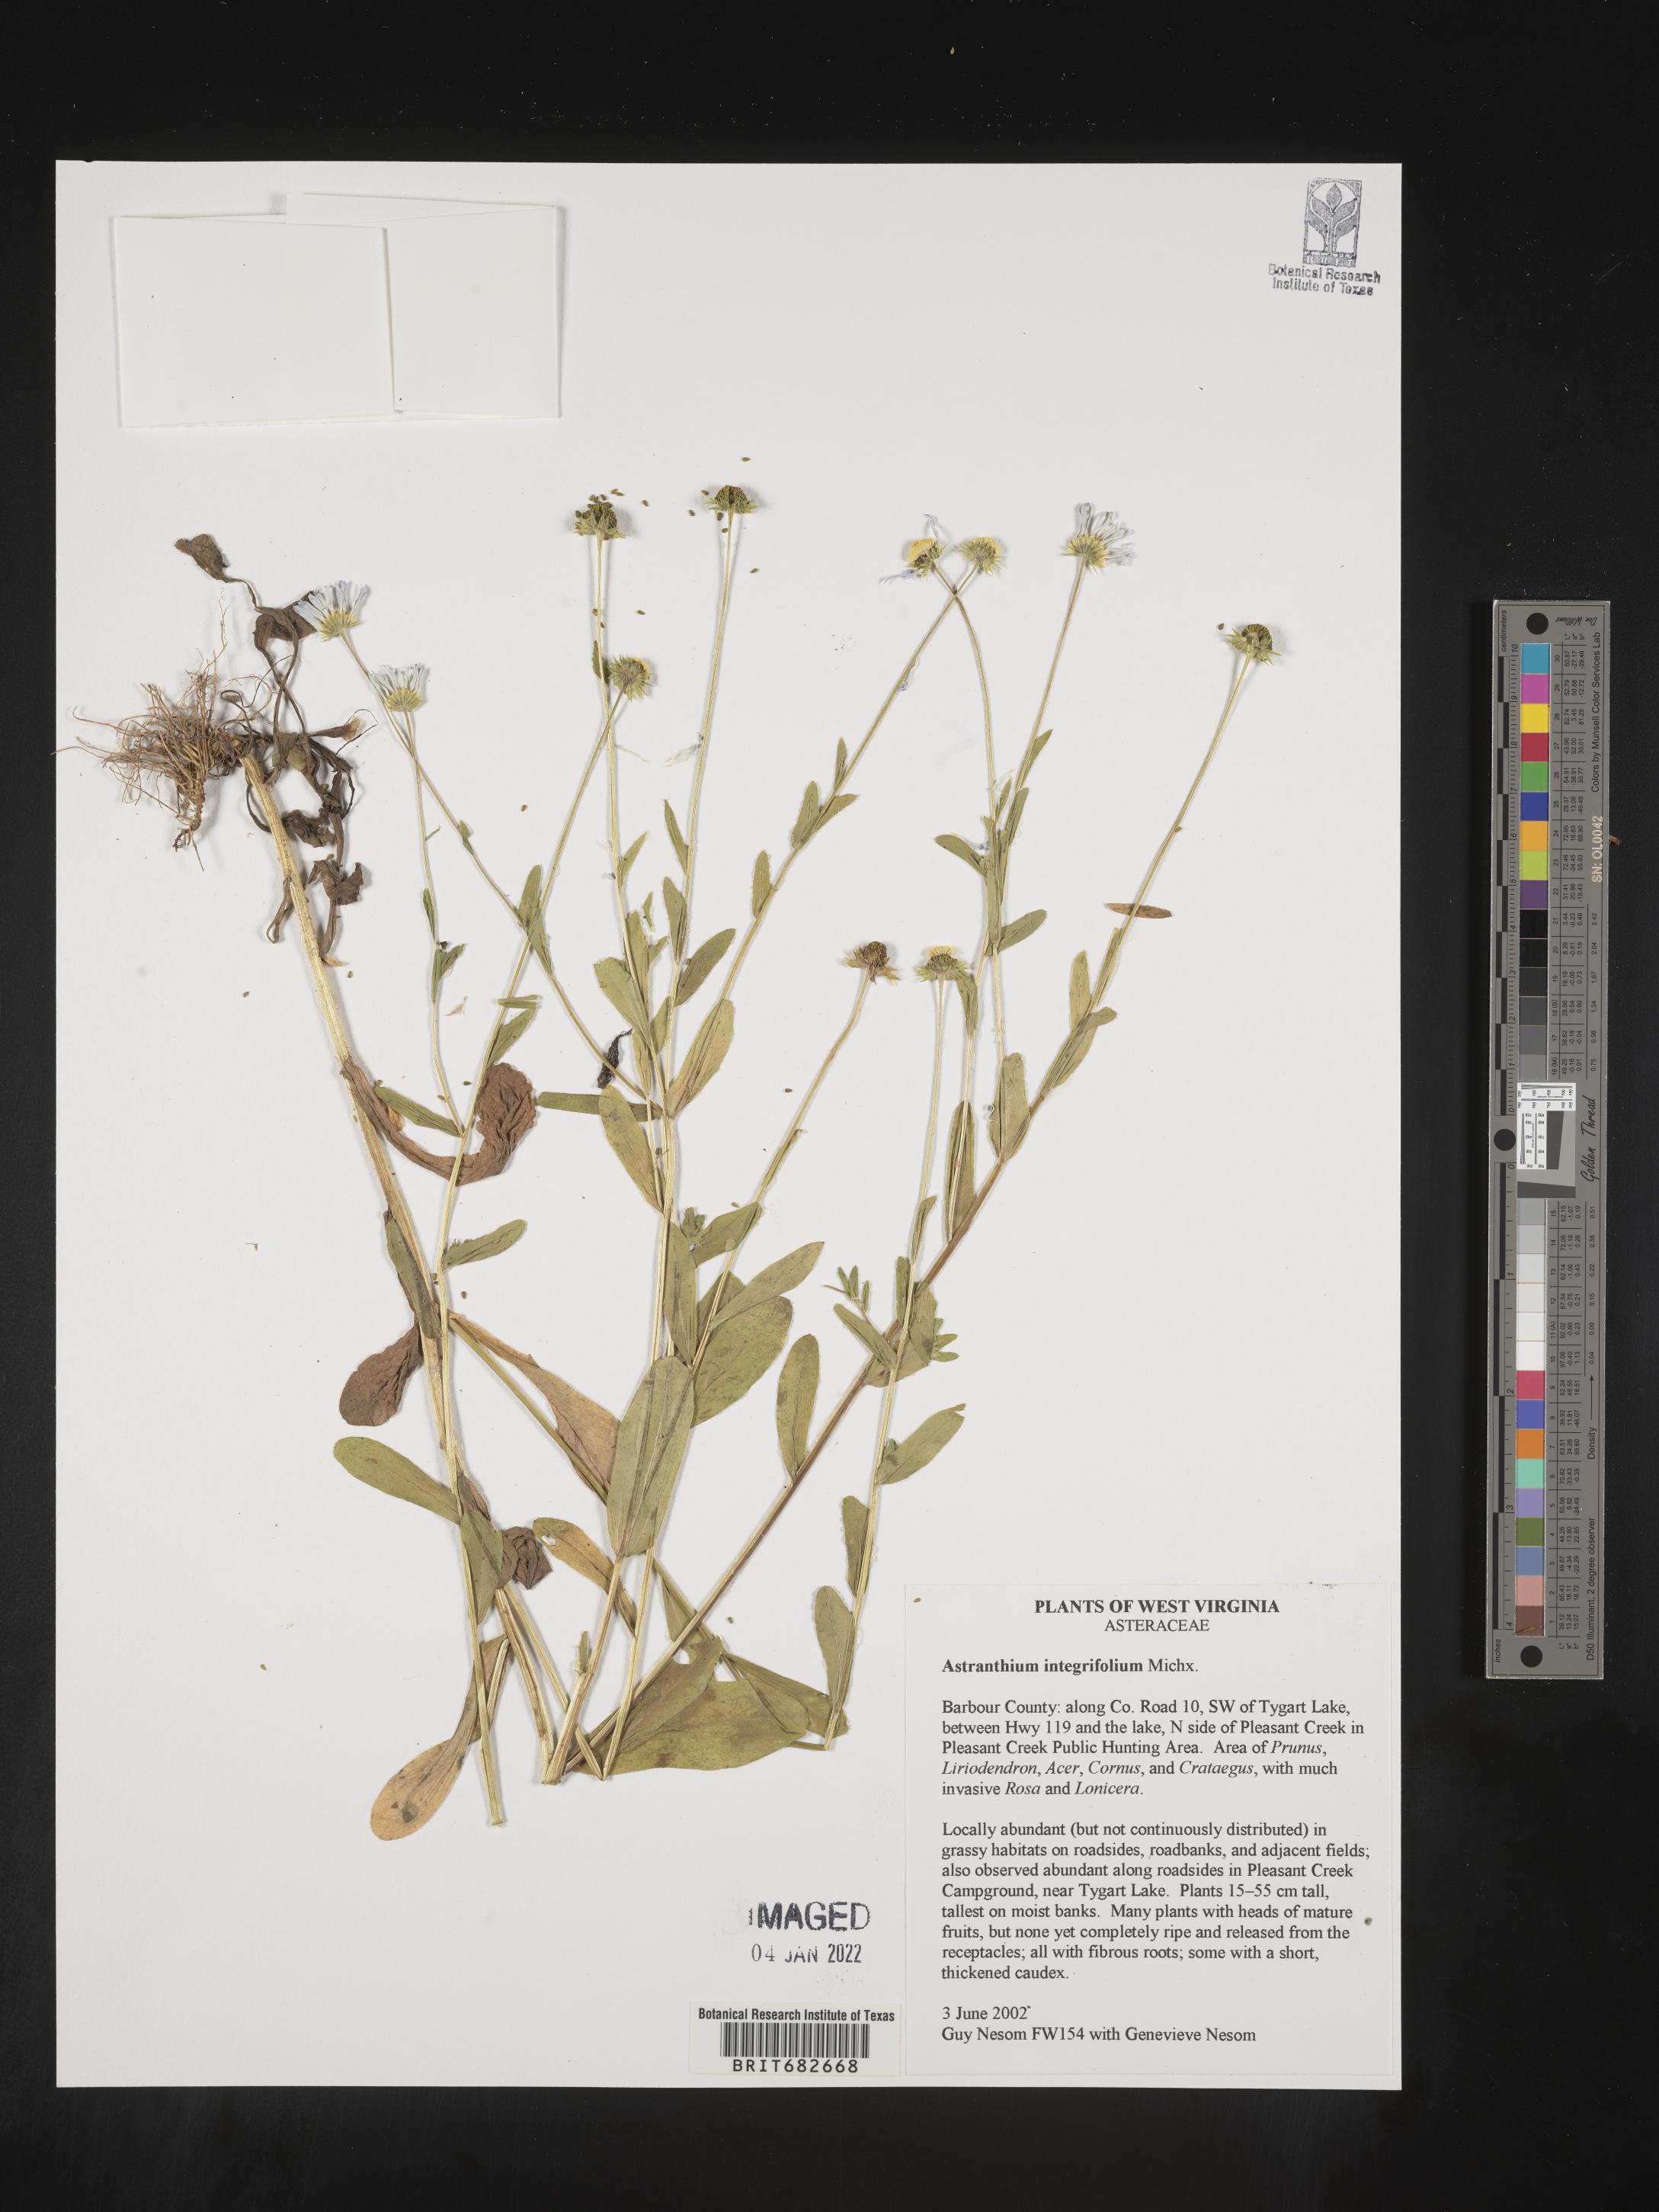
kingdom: Plantae
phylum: Tracheophyta
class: Magnoliopsida
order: Asterales
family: Asteraceae
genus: Astranthium
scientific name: Astranthium
